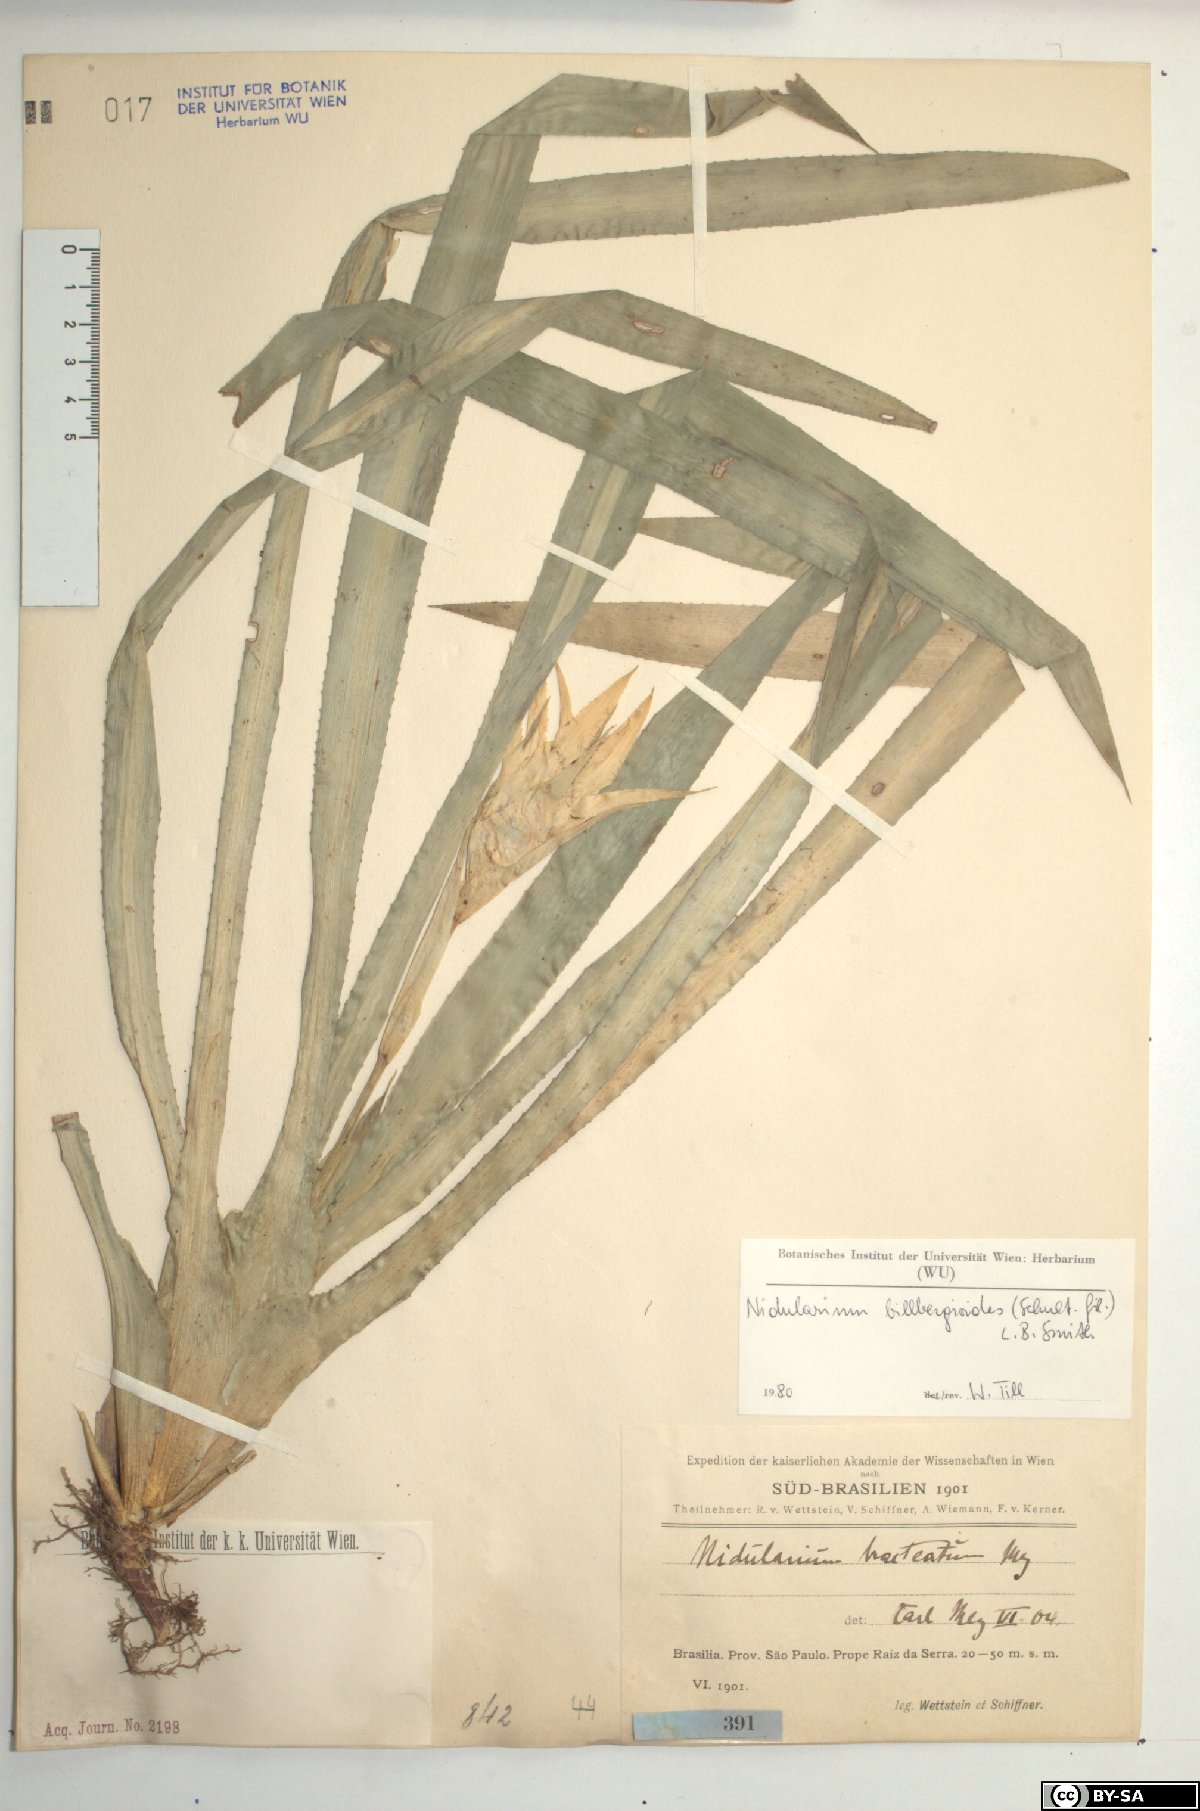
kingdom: Plantae
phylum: Tracheophyta
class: Liliopsida
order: Poales
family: Bromeliaceae
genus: Canistropsis
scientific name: Canistropsis billbergioides
